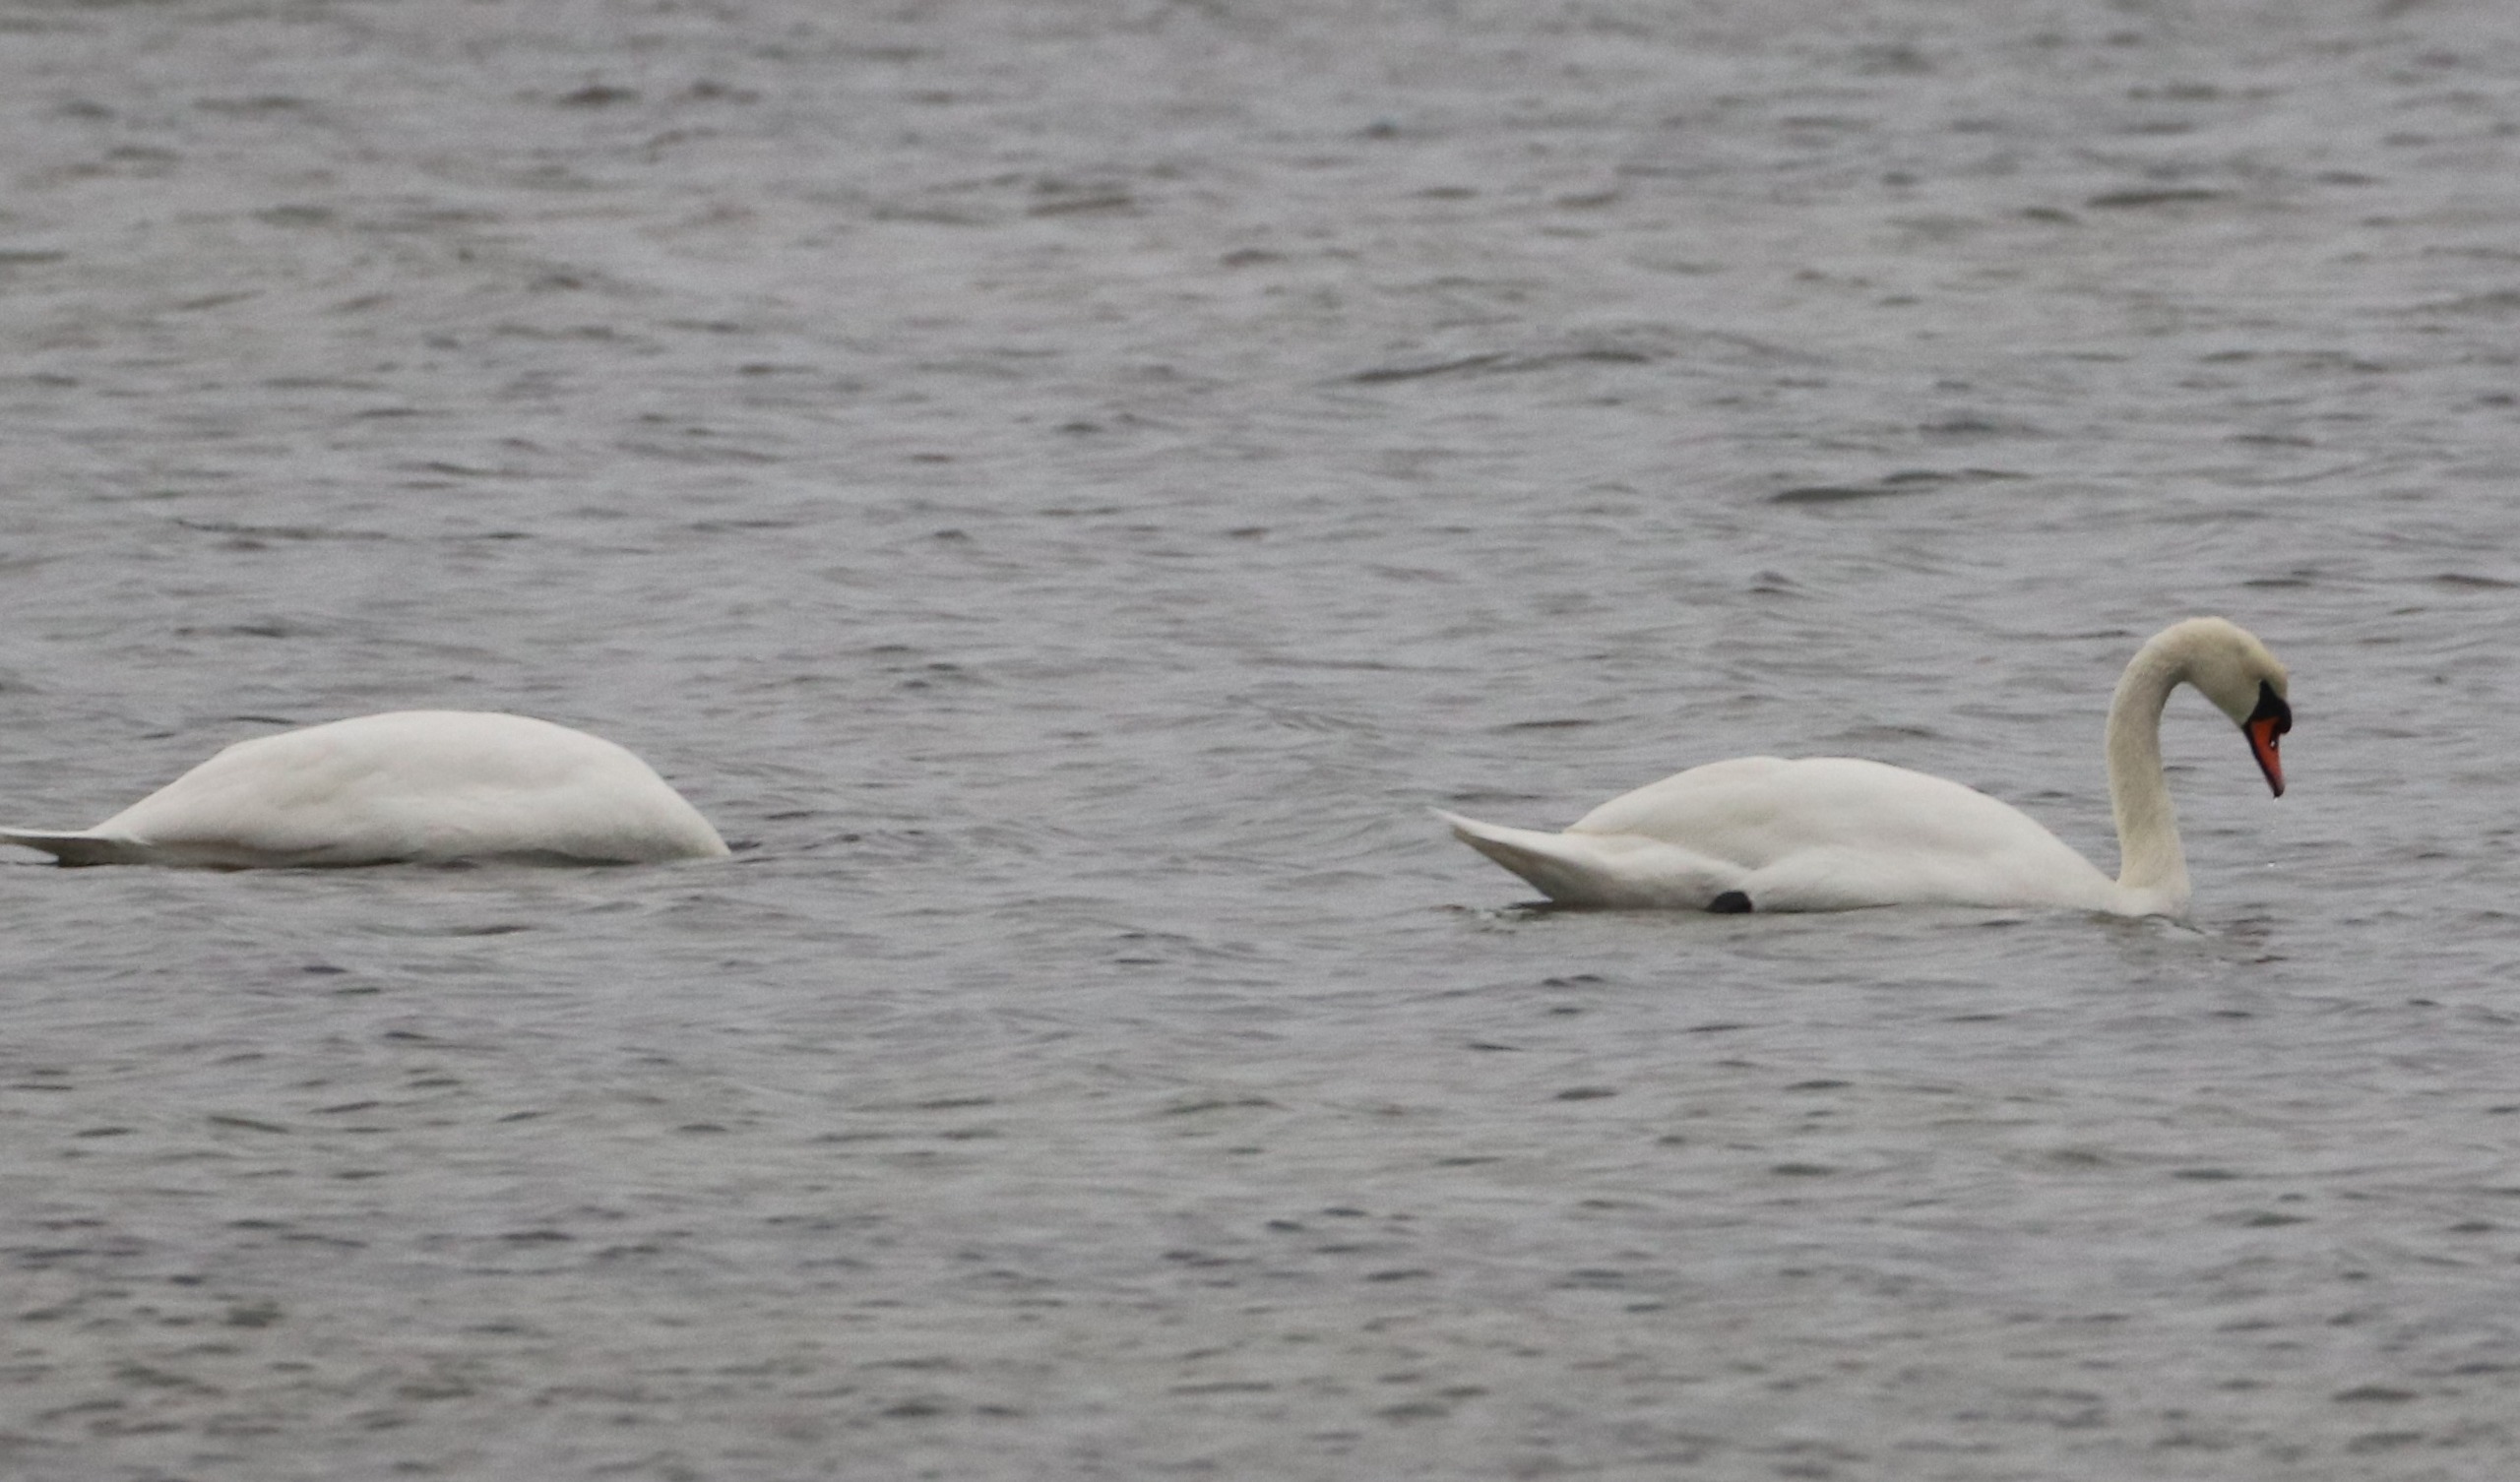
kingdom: Animalia
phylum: Chordata
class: Aves
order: Anseriformes
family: Anatidae
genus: Cygnus
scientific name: Cygnus olor
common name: Knopsvane
